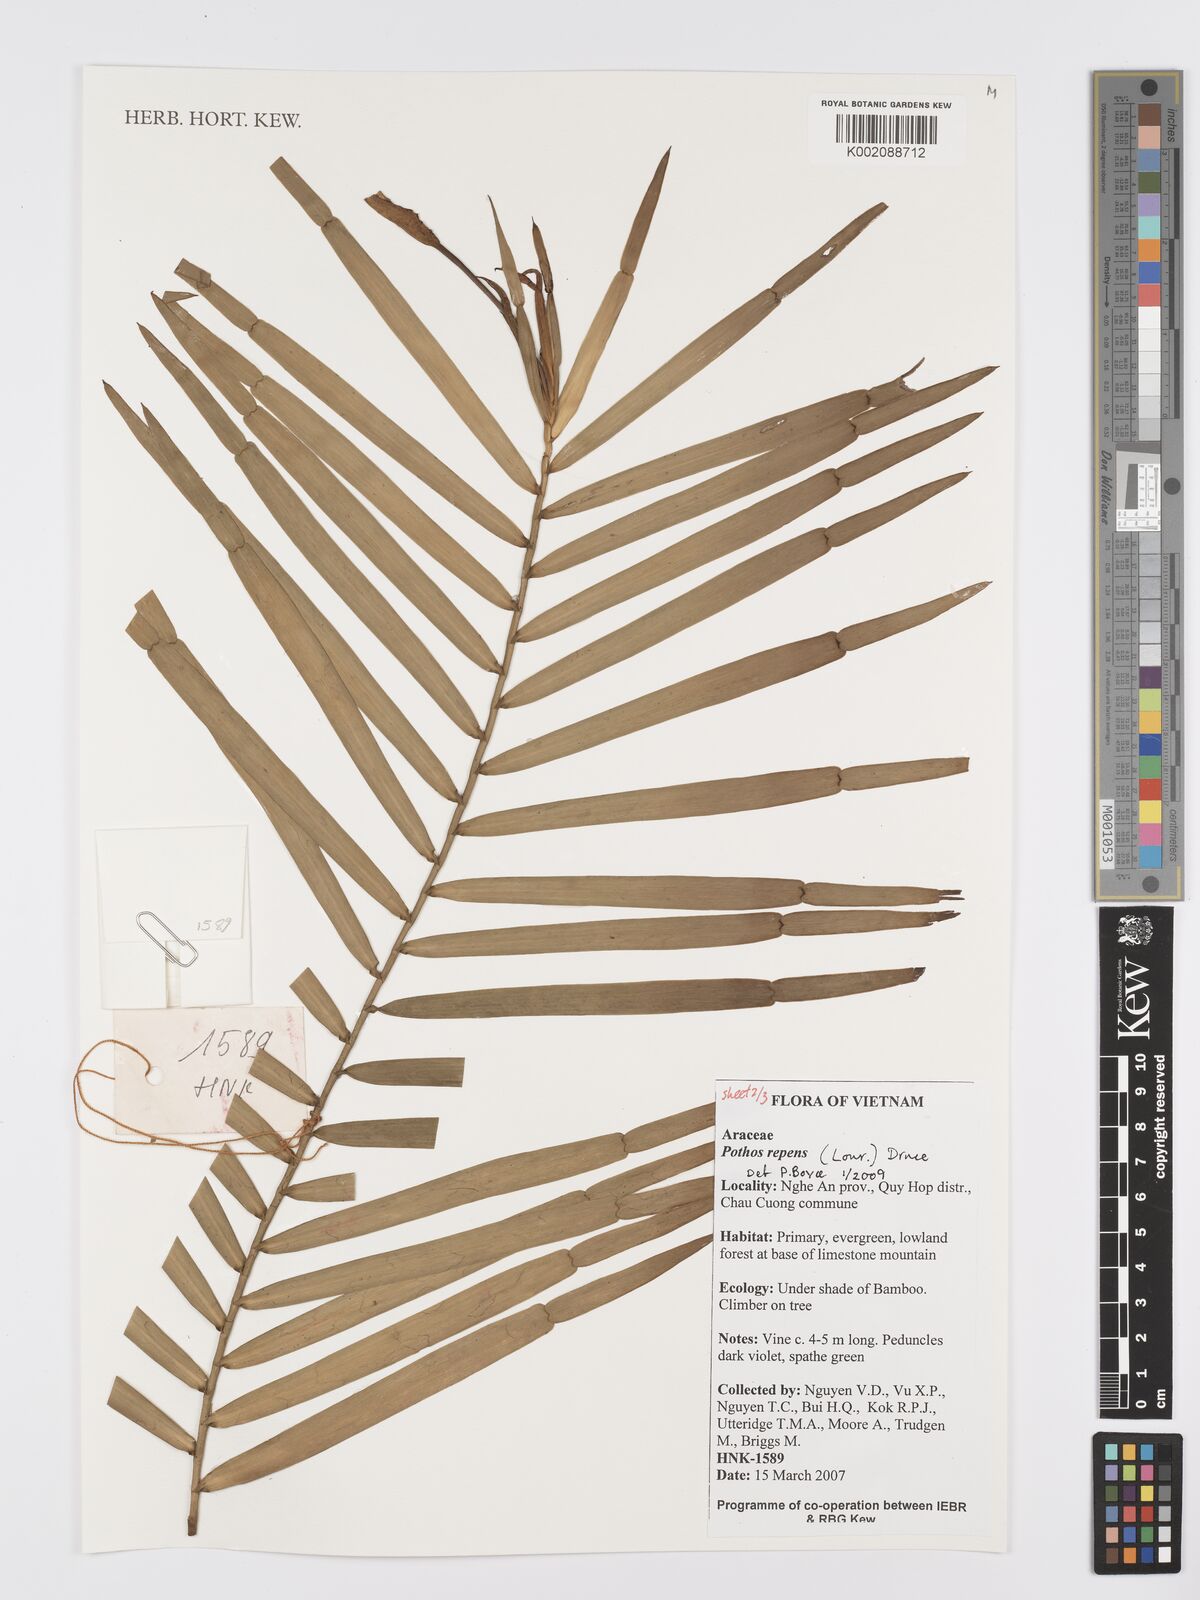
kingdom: Plantae
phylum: Tracheophyta
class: Liliopsida
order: Alismatales
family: Araceae
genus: Pothos
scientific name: Pothos repens
